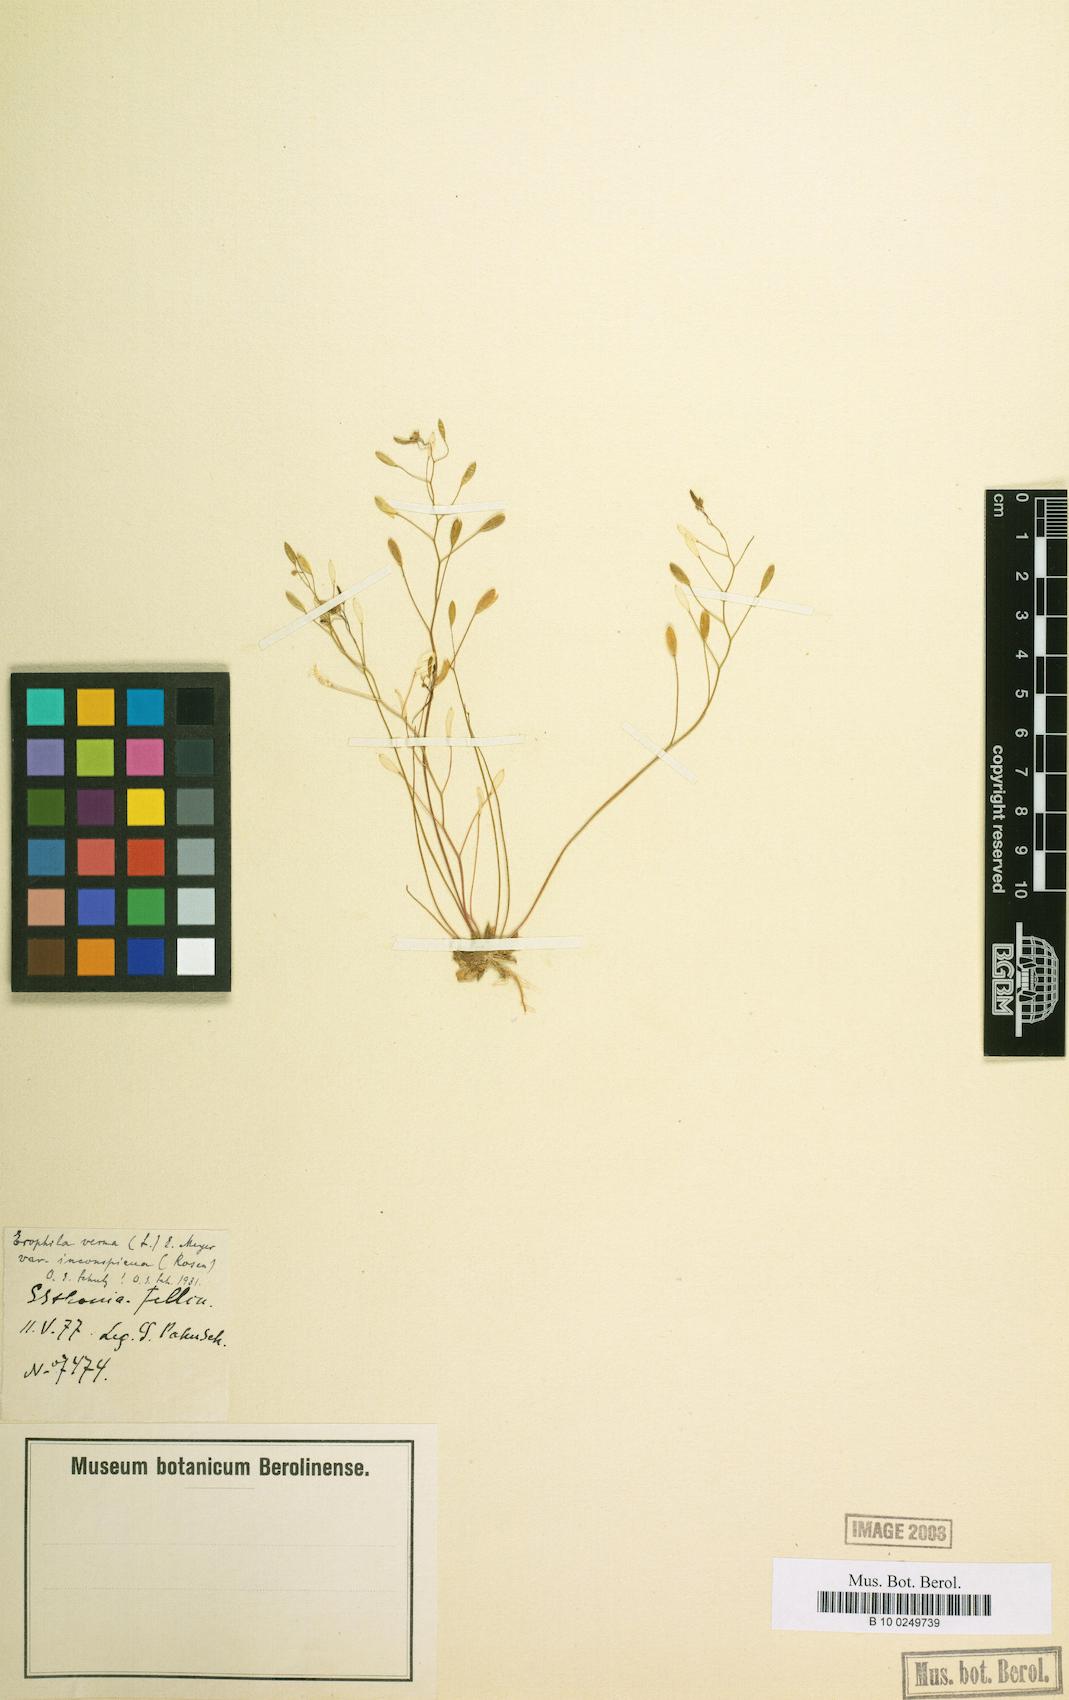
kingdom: Plantae
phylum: Tracheophyta
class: Magnoliopsida
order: Brassicales
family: Brassicaceae
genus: Draba
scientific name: Draba verna
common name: Spring draba
